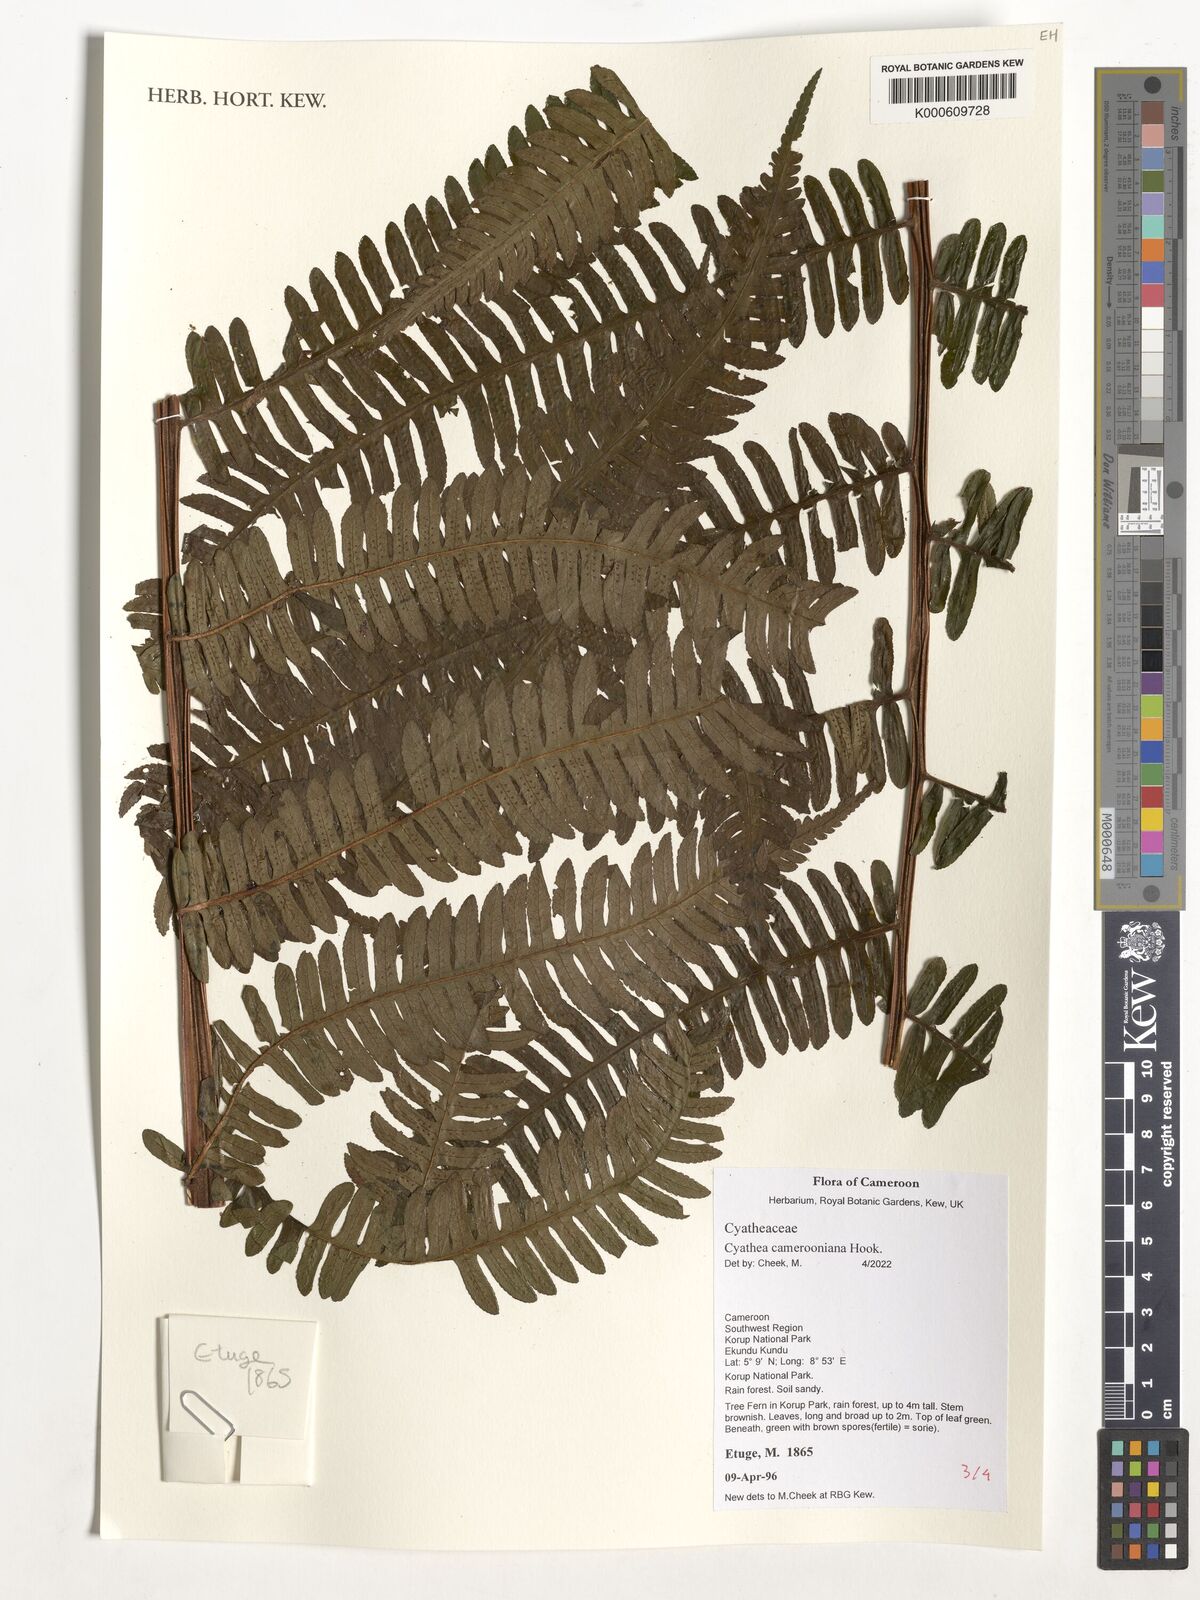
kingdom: Plantae
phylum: Tracheophyta
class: Polypodiopsida
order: Cyatheales
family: Cyatheaceae
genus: Alsophila
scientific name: Alsophila camerooniana
